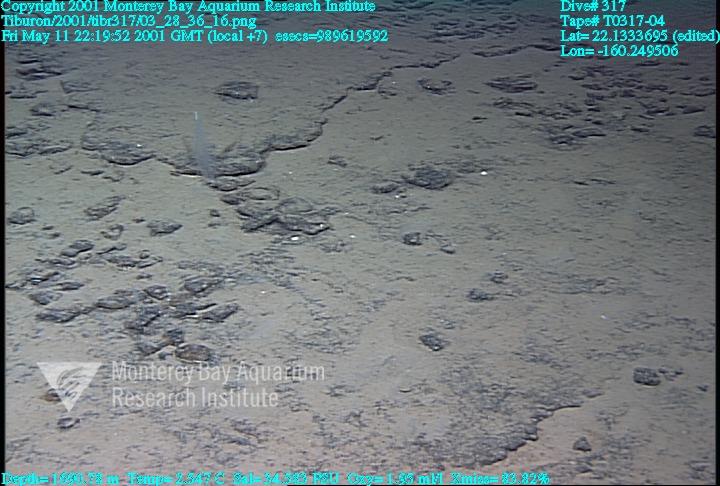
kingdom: Animalia
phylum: Porifera
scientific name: Porifera
